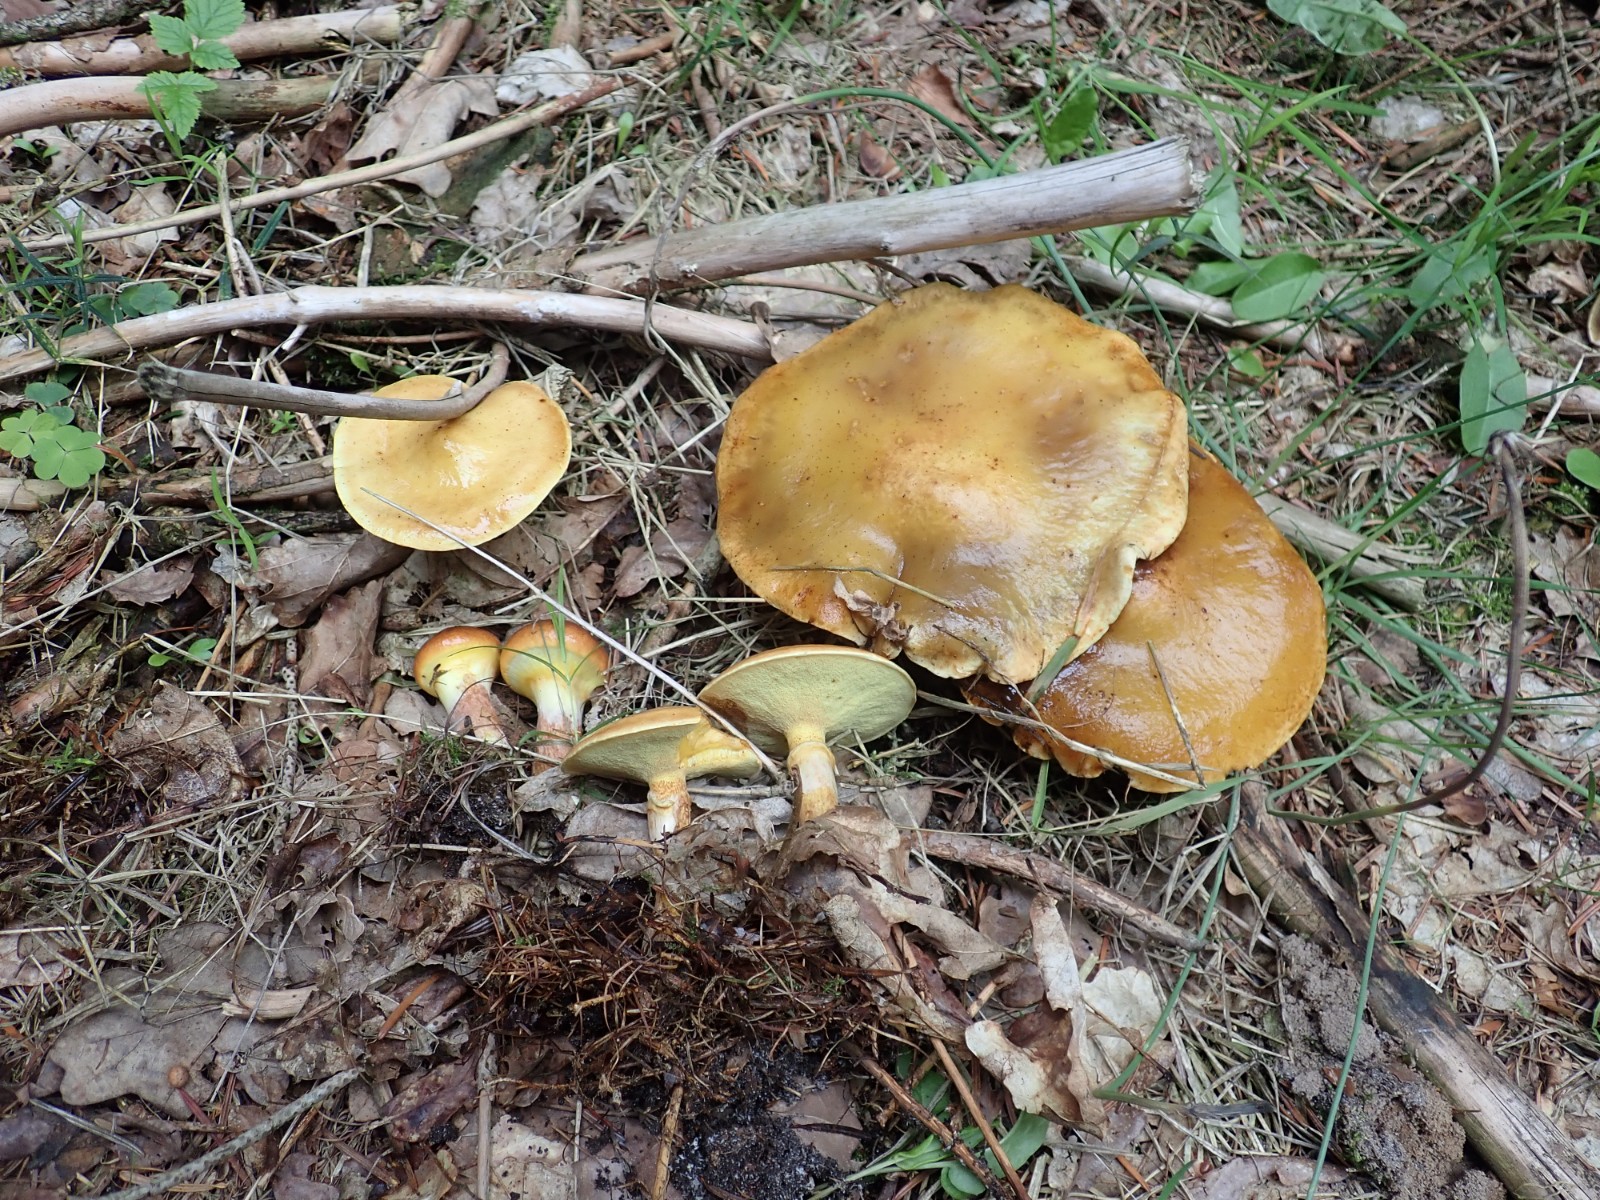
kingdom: Fungi
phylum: Basidiomycota
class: Agaricomycetes
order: Boletales
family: Suillaceae
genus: Suillus
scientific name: Suillus grevillei
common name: lærke-slimrørhat
